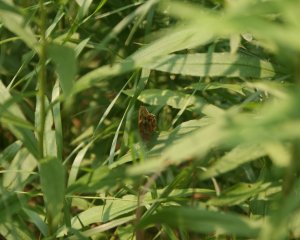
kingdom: Animalia
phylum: Arthropoda
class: Insecta
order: Lepidoptera
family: Nymphalidae
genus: Lethe
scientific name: Lethe anthedon
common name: Northern Pearly-Eye
